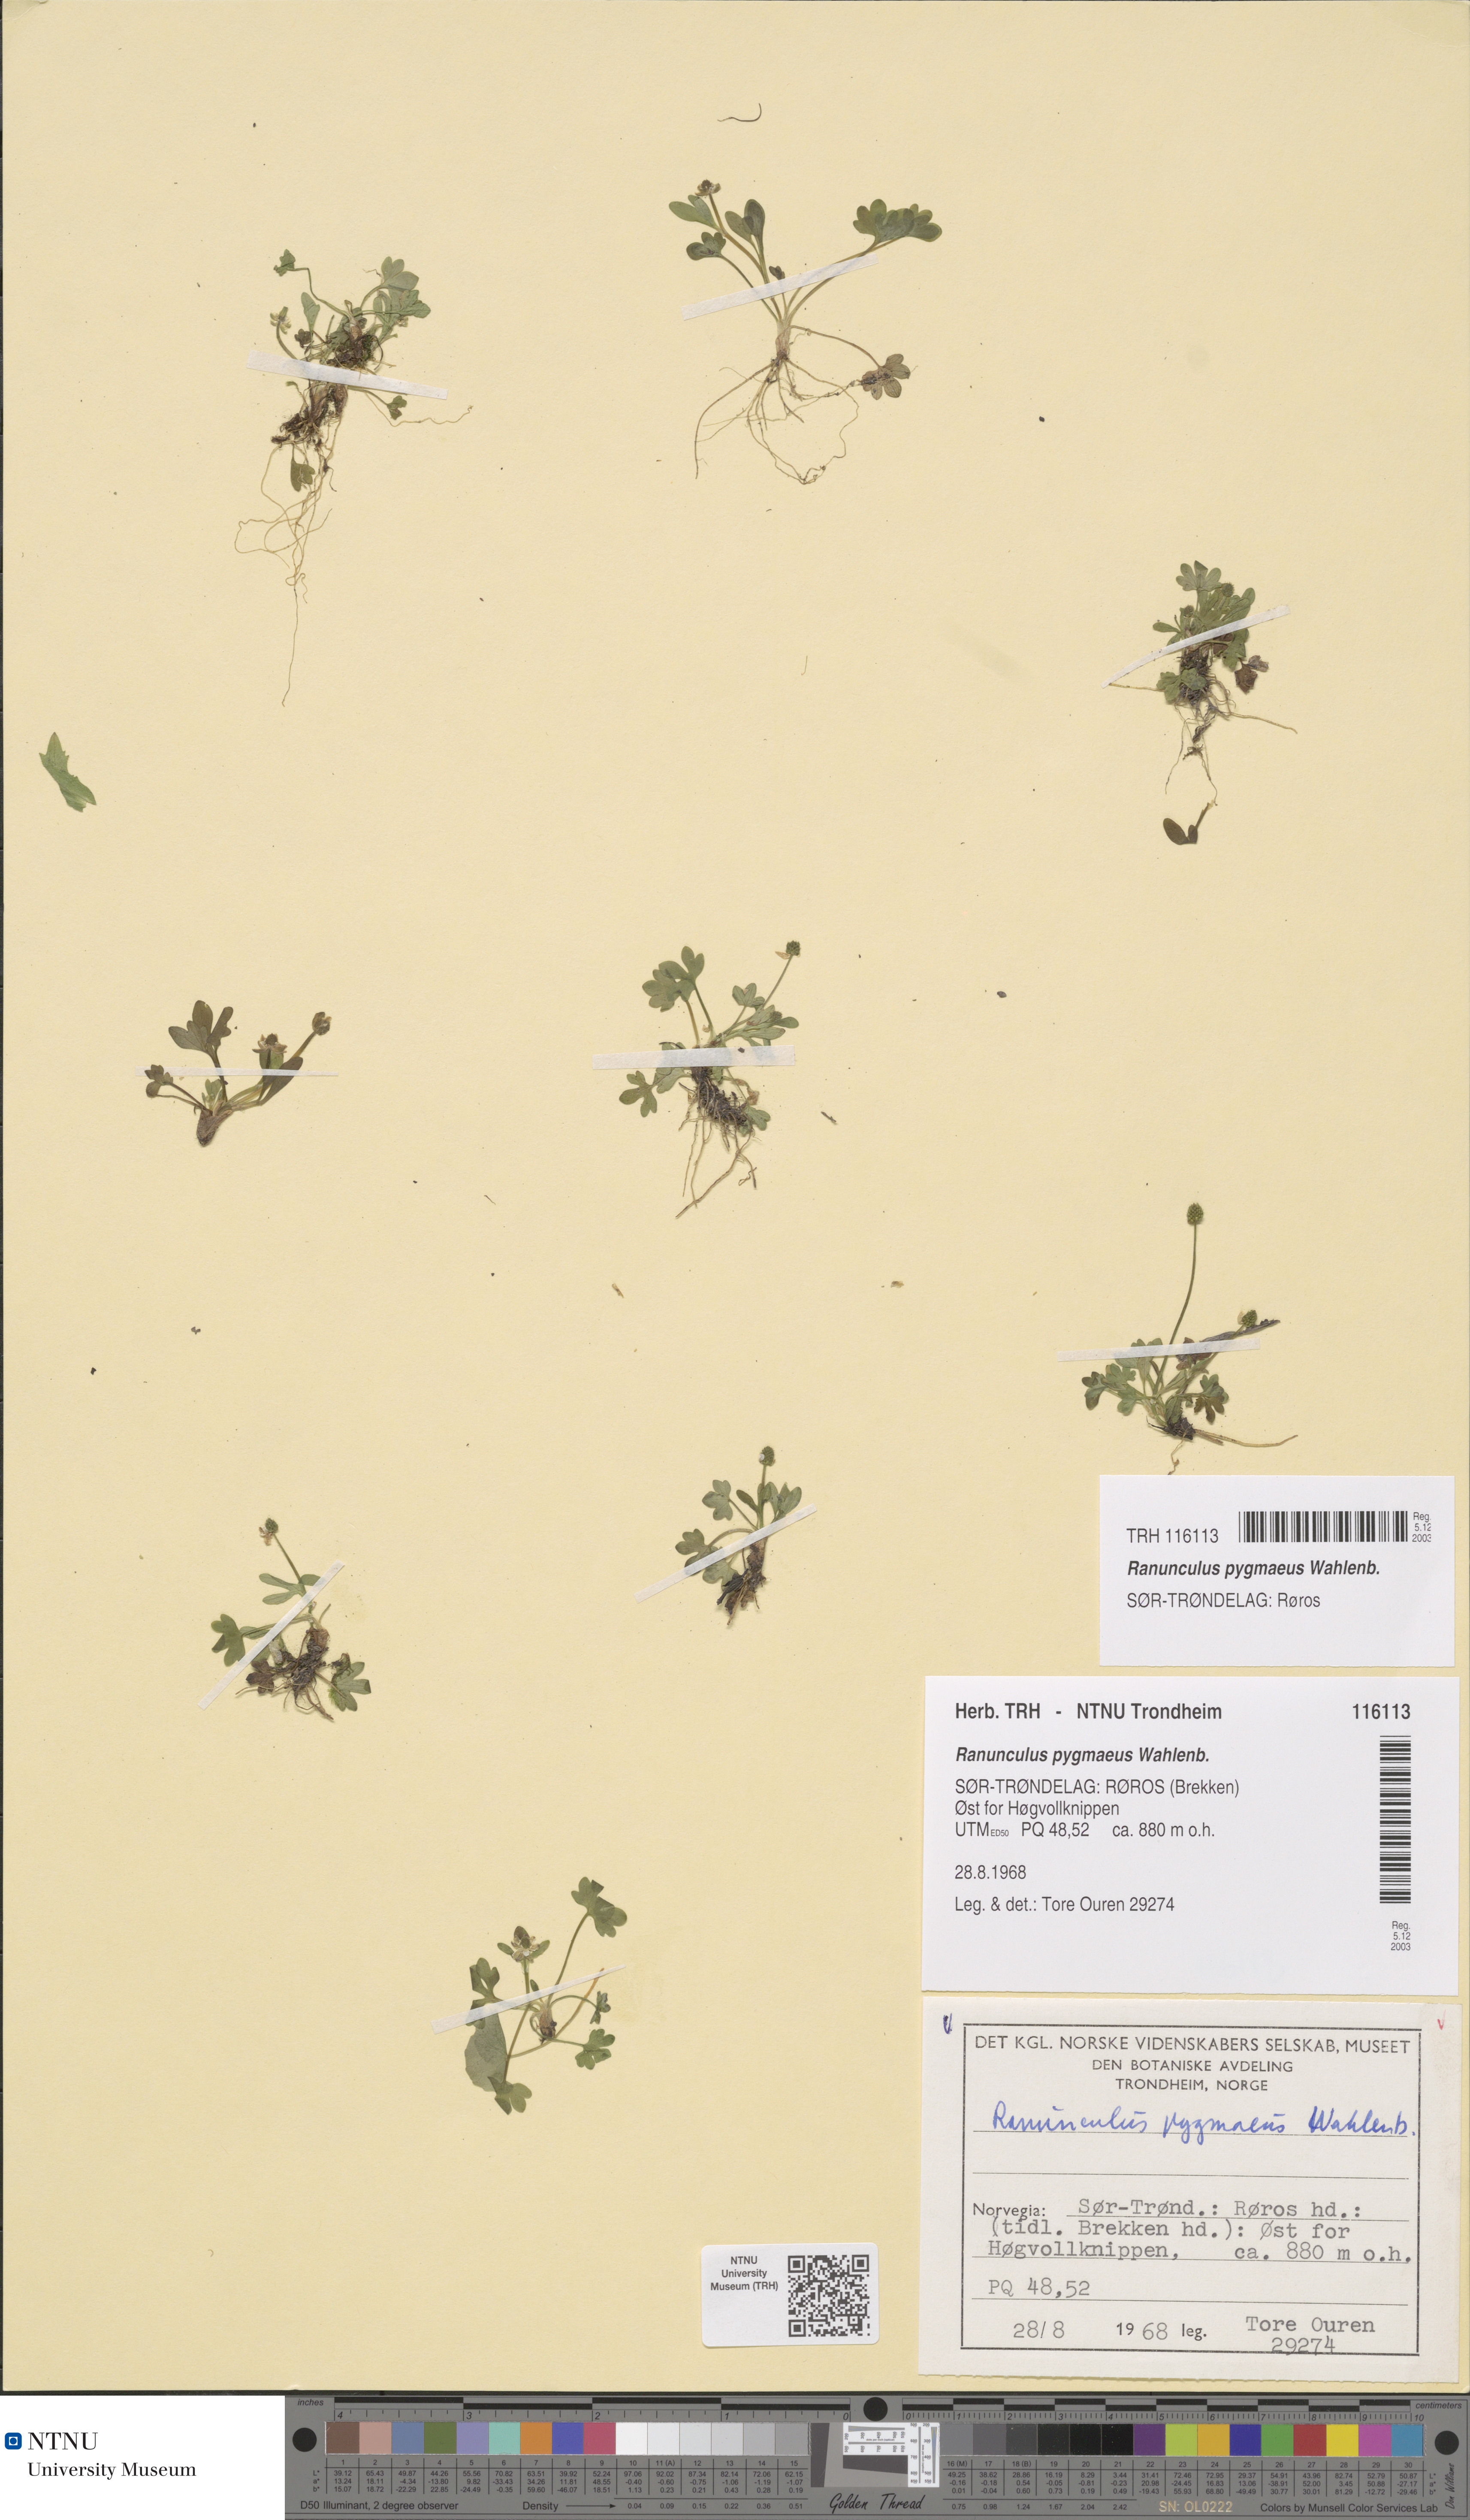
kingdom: Plantae
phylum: Tracheophyta
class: Magnoliopsida
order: Ranunculales
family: Ranunculaceae
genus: Ranunculus
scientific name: Ranunculus pygmaeus
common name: Dwarf buttercup
